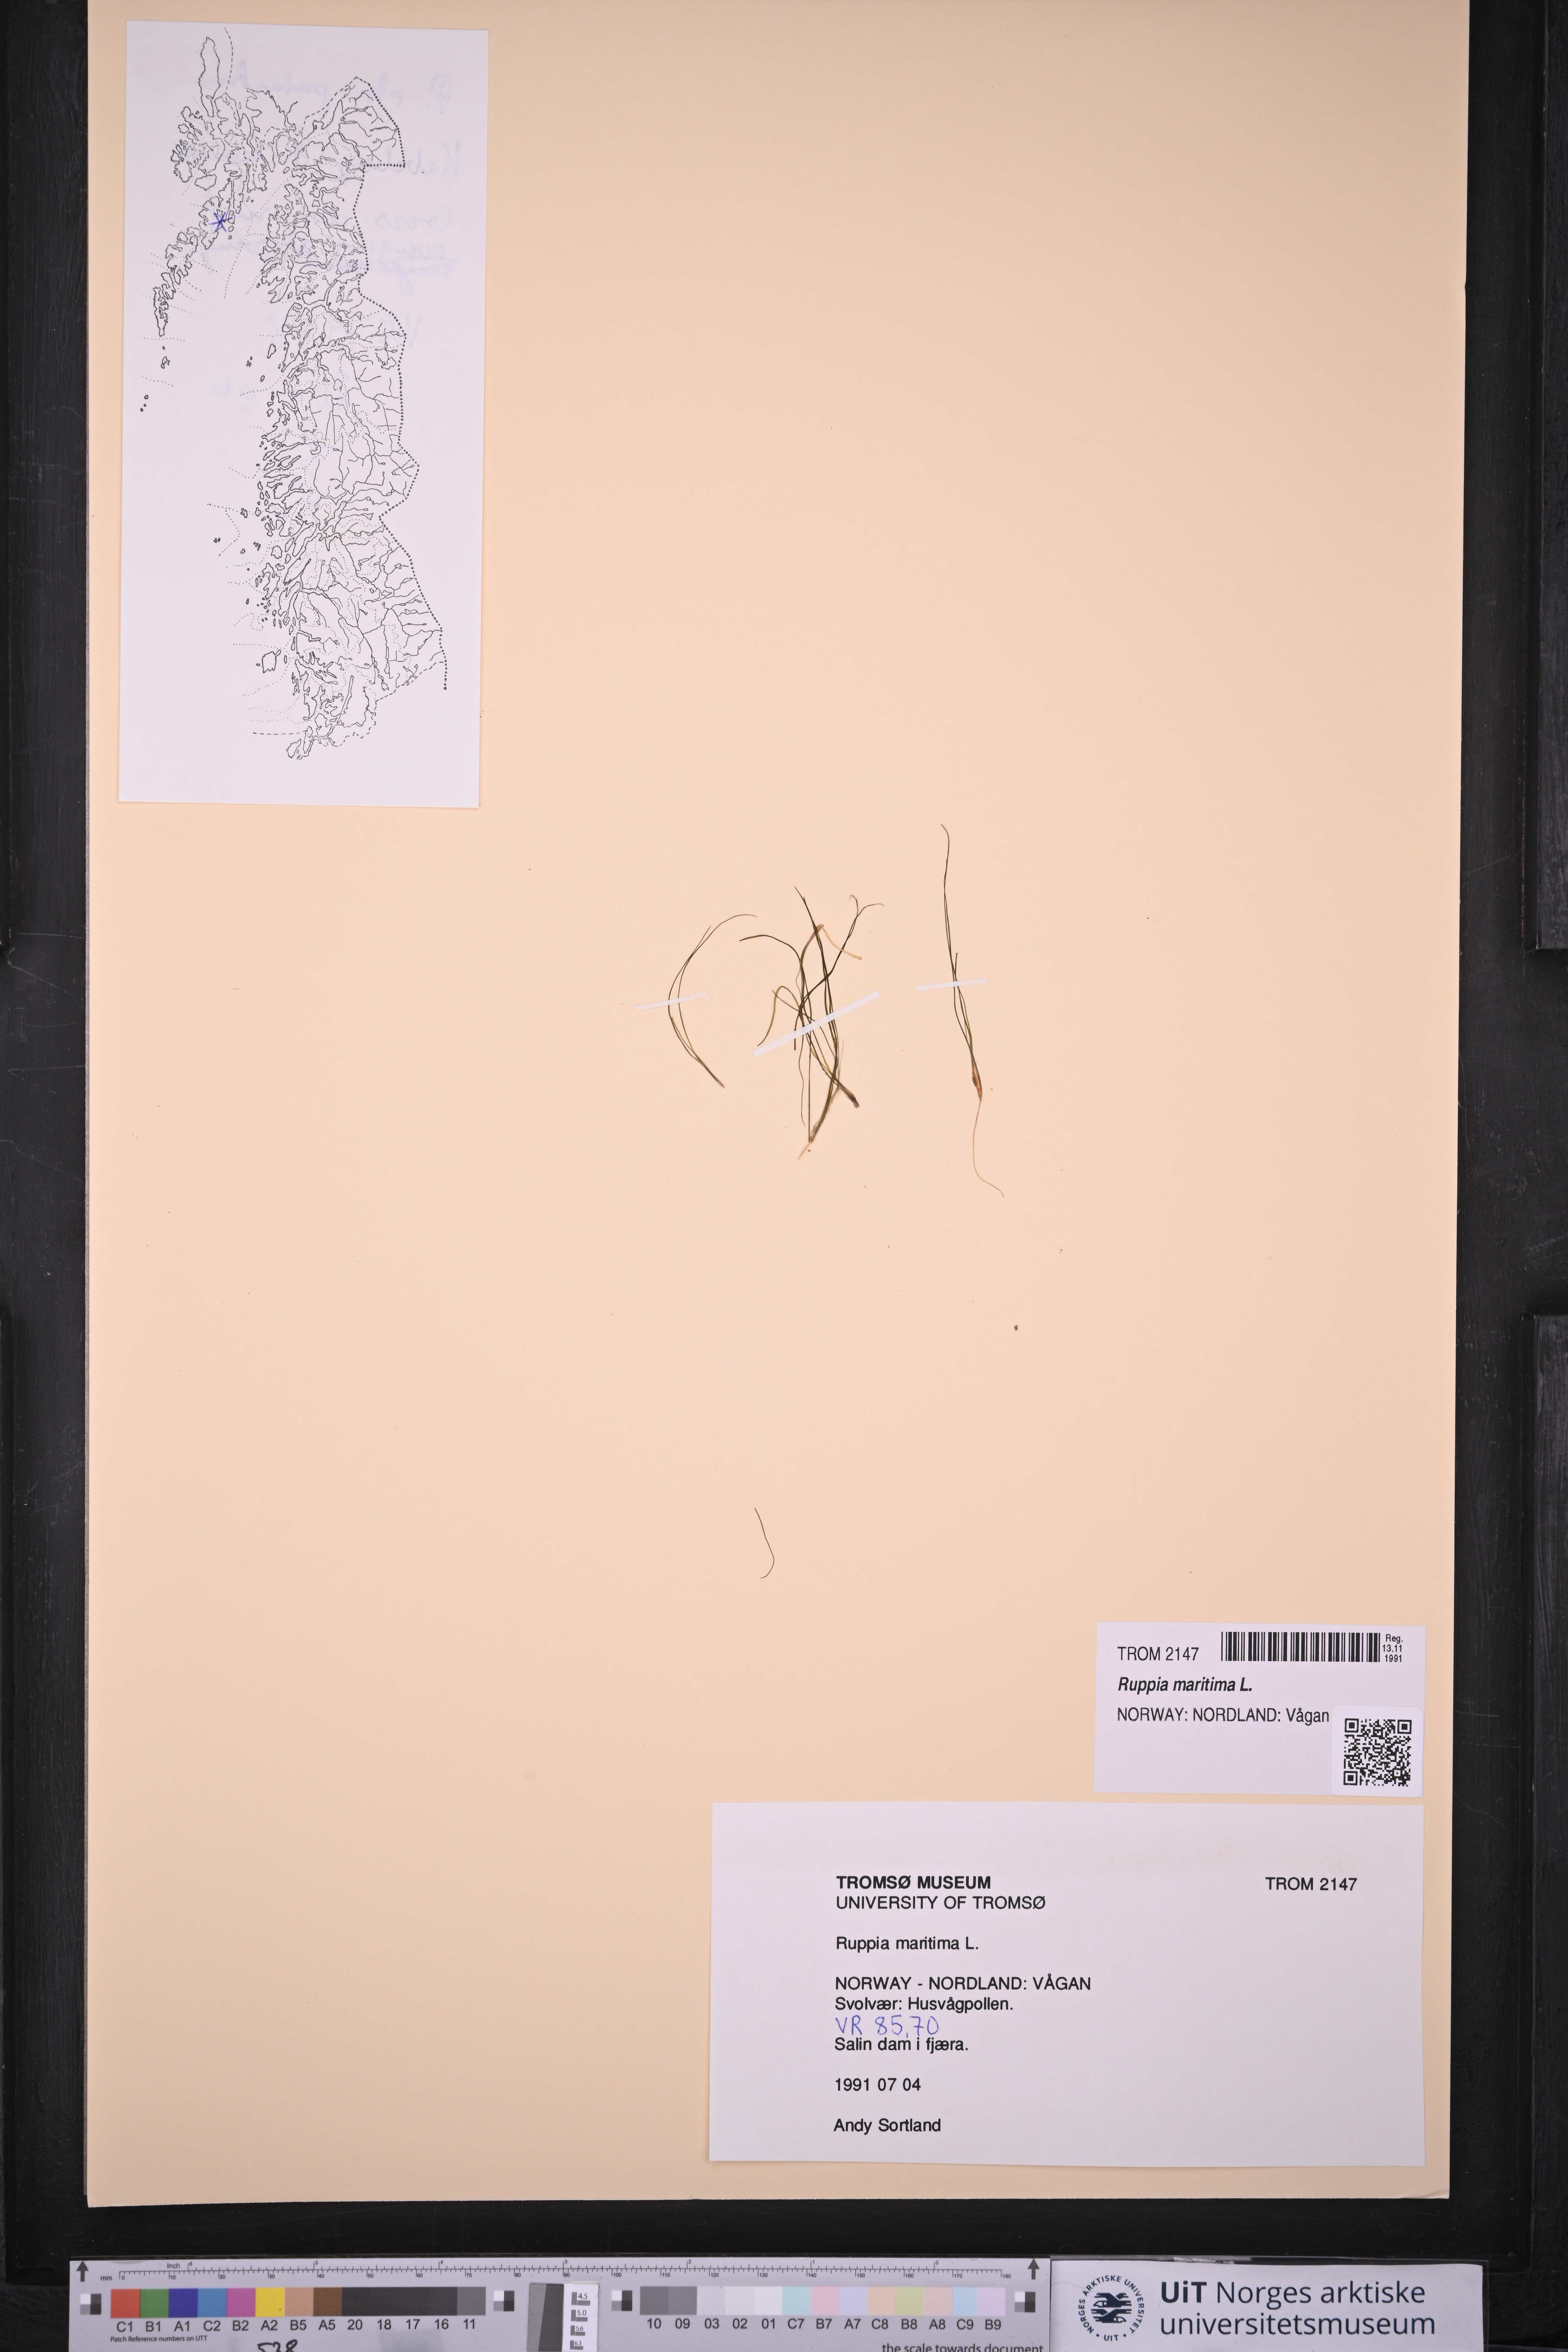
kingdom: Plantae
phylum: Tracheophyta
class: Liliopsida
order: Alismatales
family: Ruppiaceae
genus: Ruppia
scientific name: Ruppia maritima
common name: Beaked tasselweed
